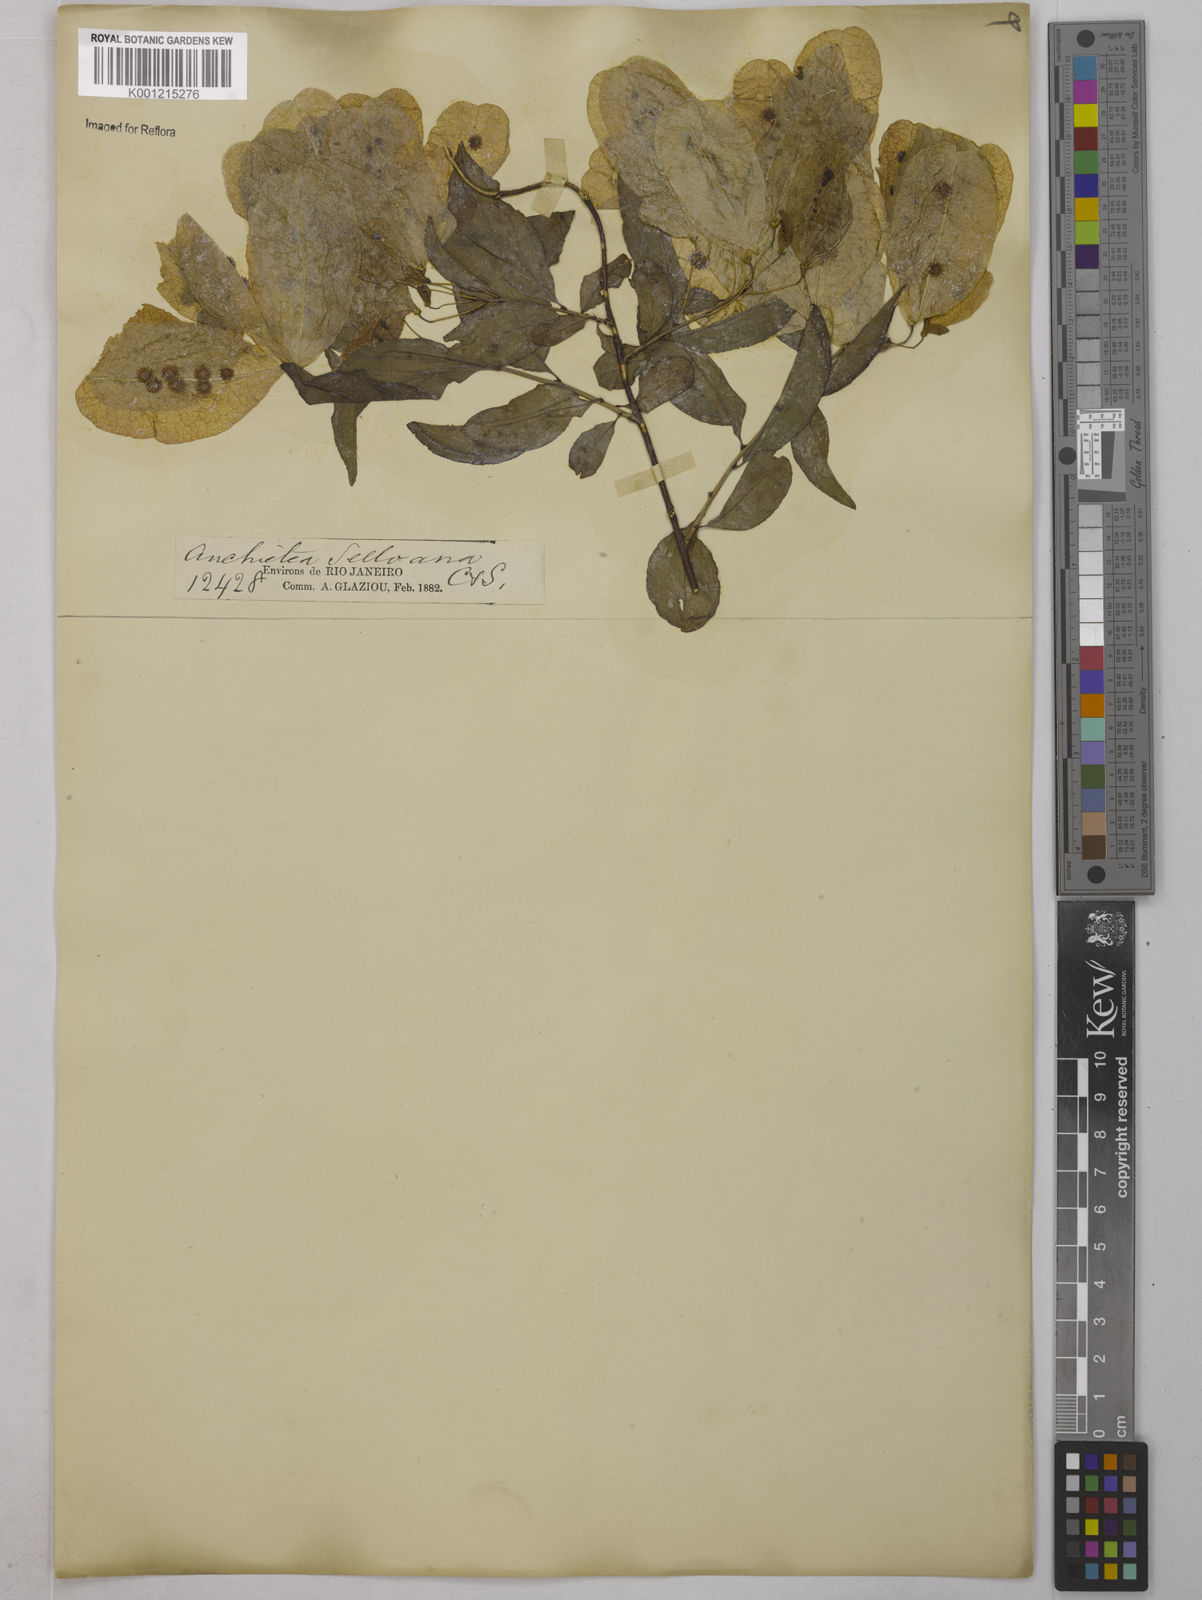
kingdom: Plantae
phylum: Tracheophyta
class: Magnoliopsida
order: Malpighiales
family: Violaceae
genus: Anchietea
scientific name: Anchietea sellowiana
